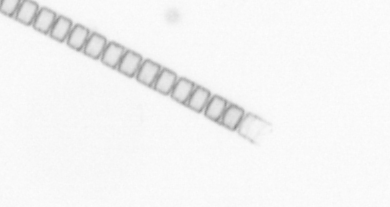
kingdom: Chromista
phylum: Ochrophyta
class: Bacillariophyceae
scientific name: Bacillariophyceae
